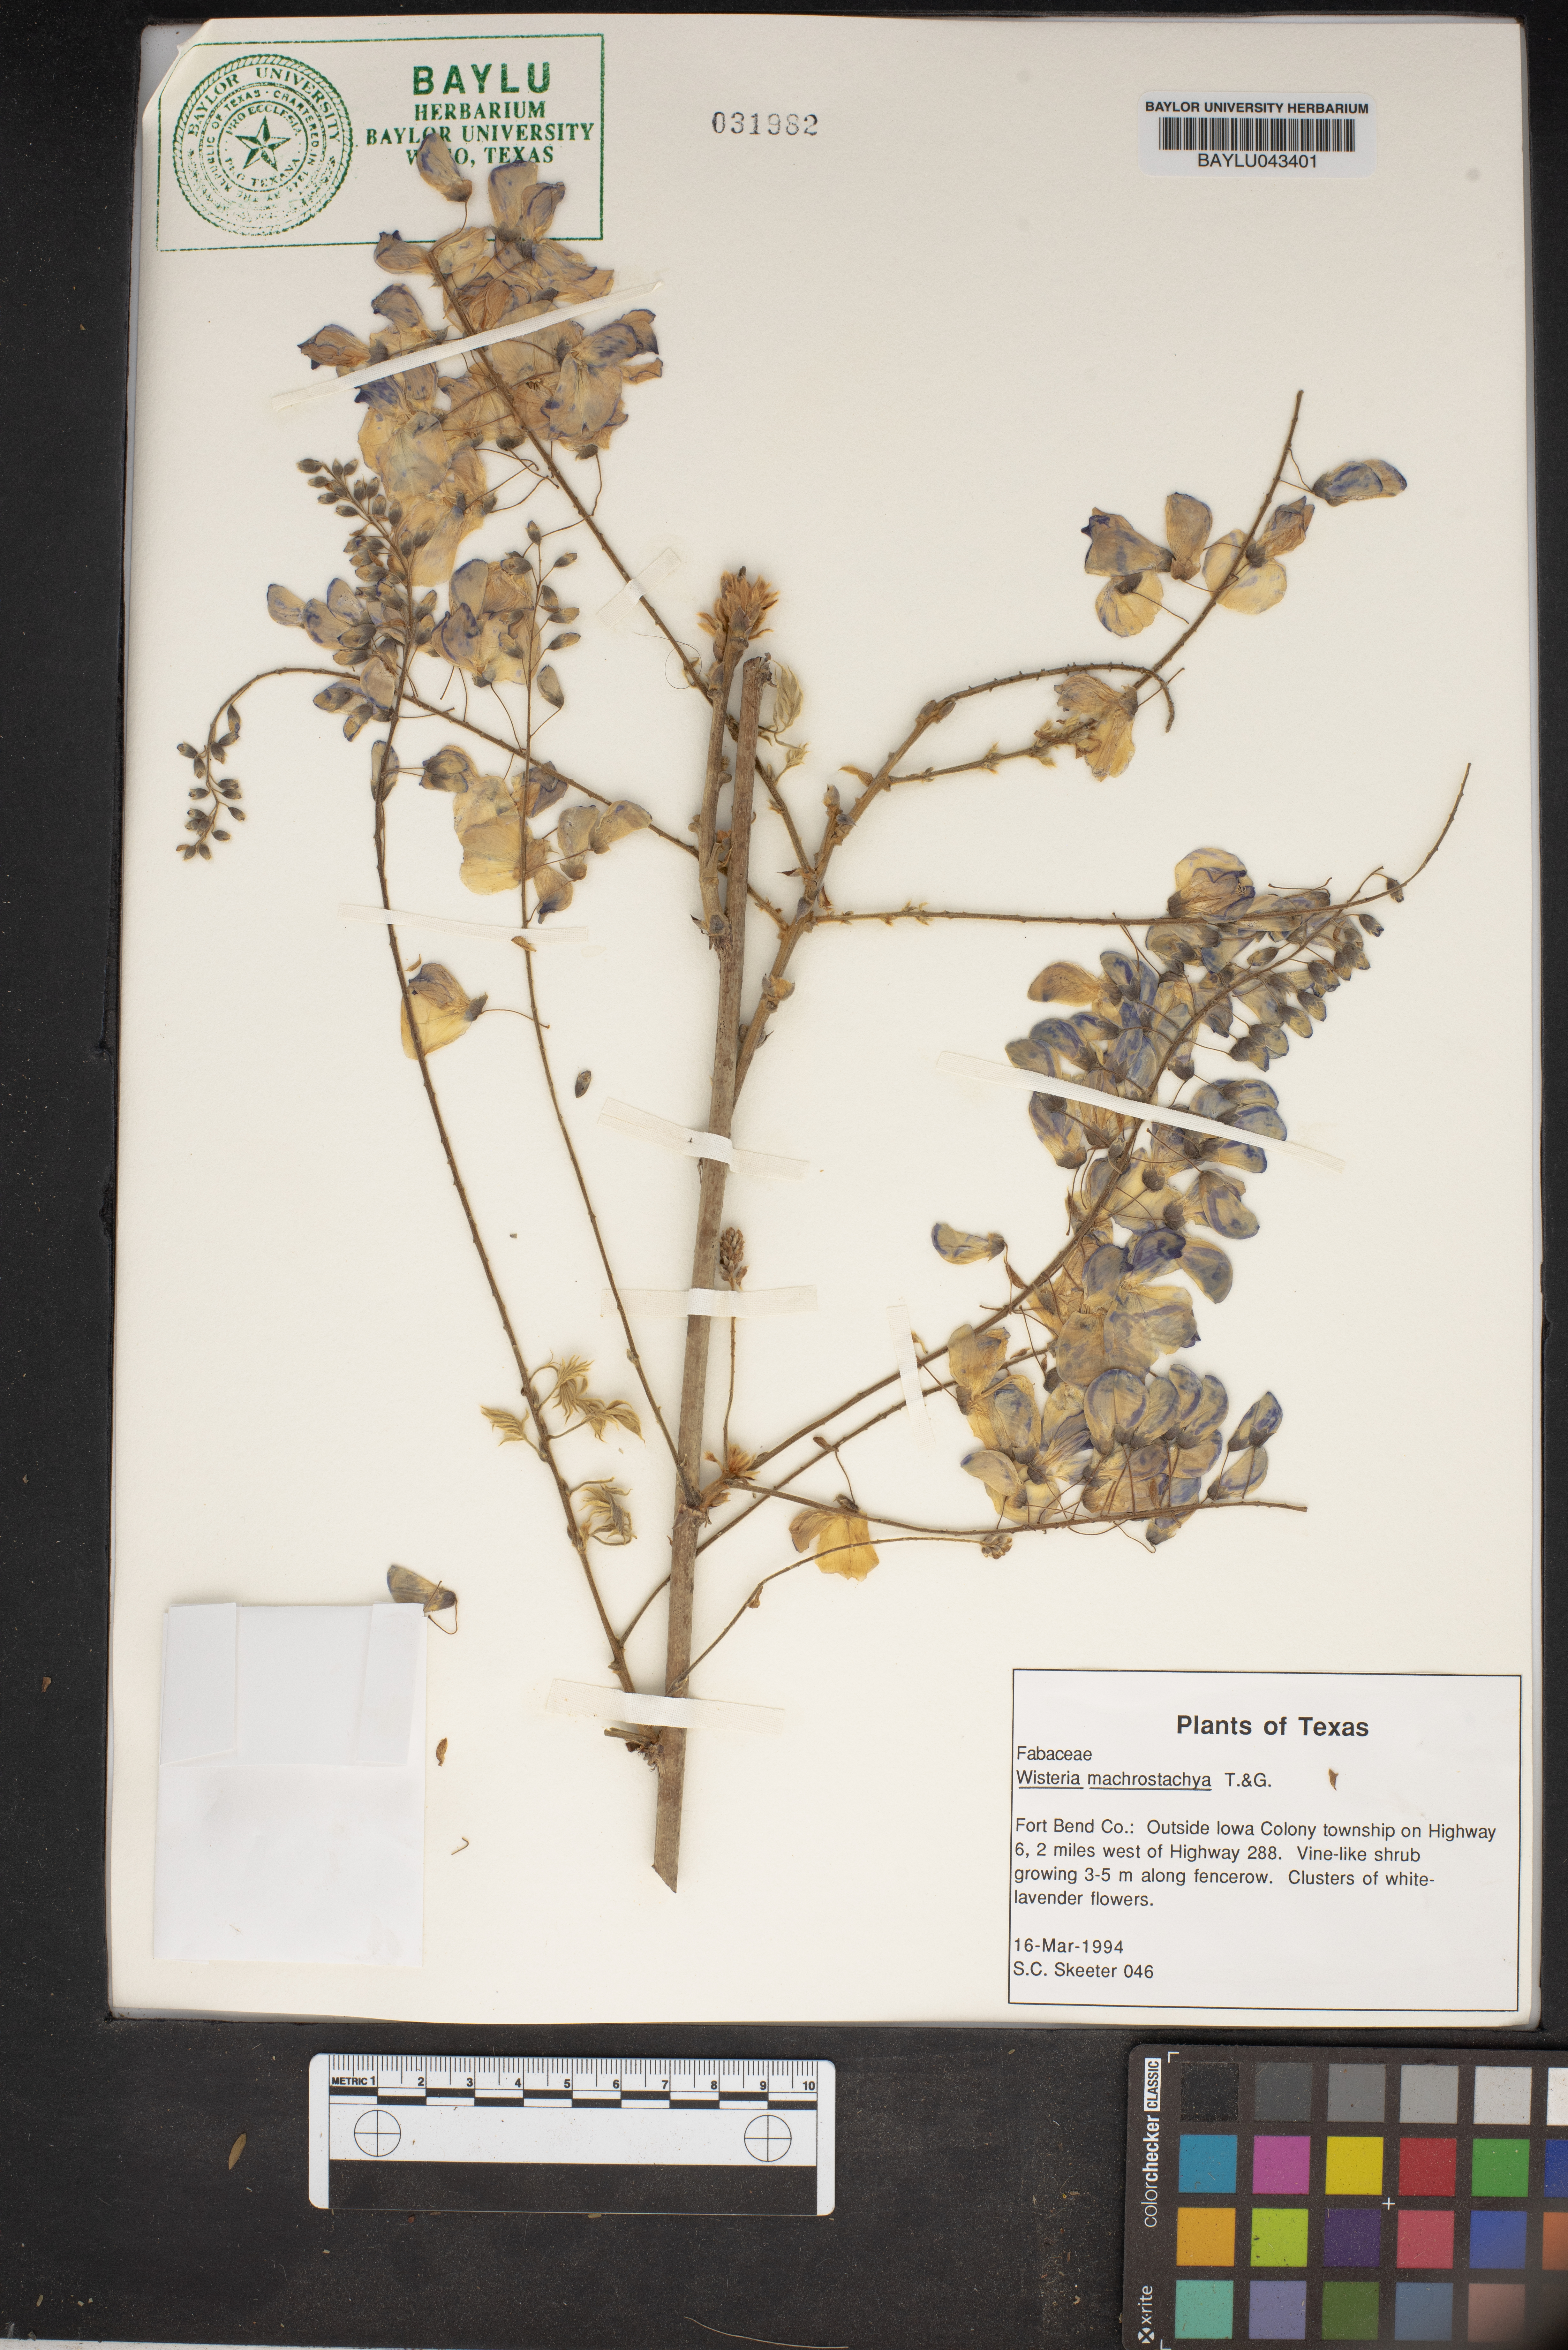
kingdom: Plantae
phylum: Tracheophyta
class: Magnoliopsida
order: Fabales
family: Fabaceae
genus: Wisteria
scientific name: Wisteria frutescens
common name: American wisteria
